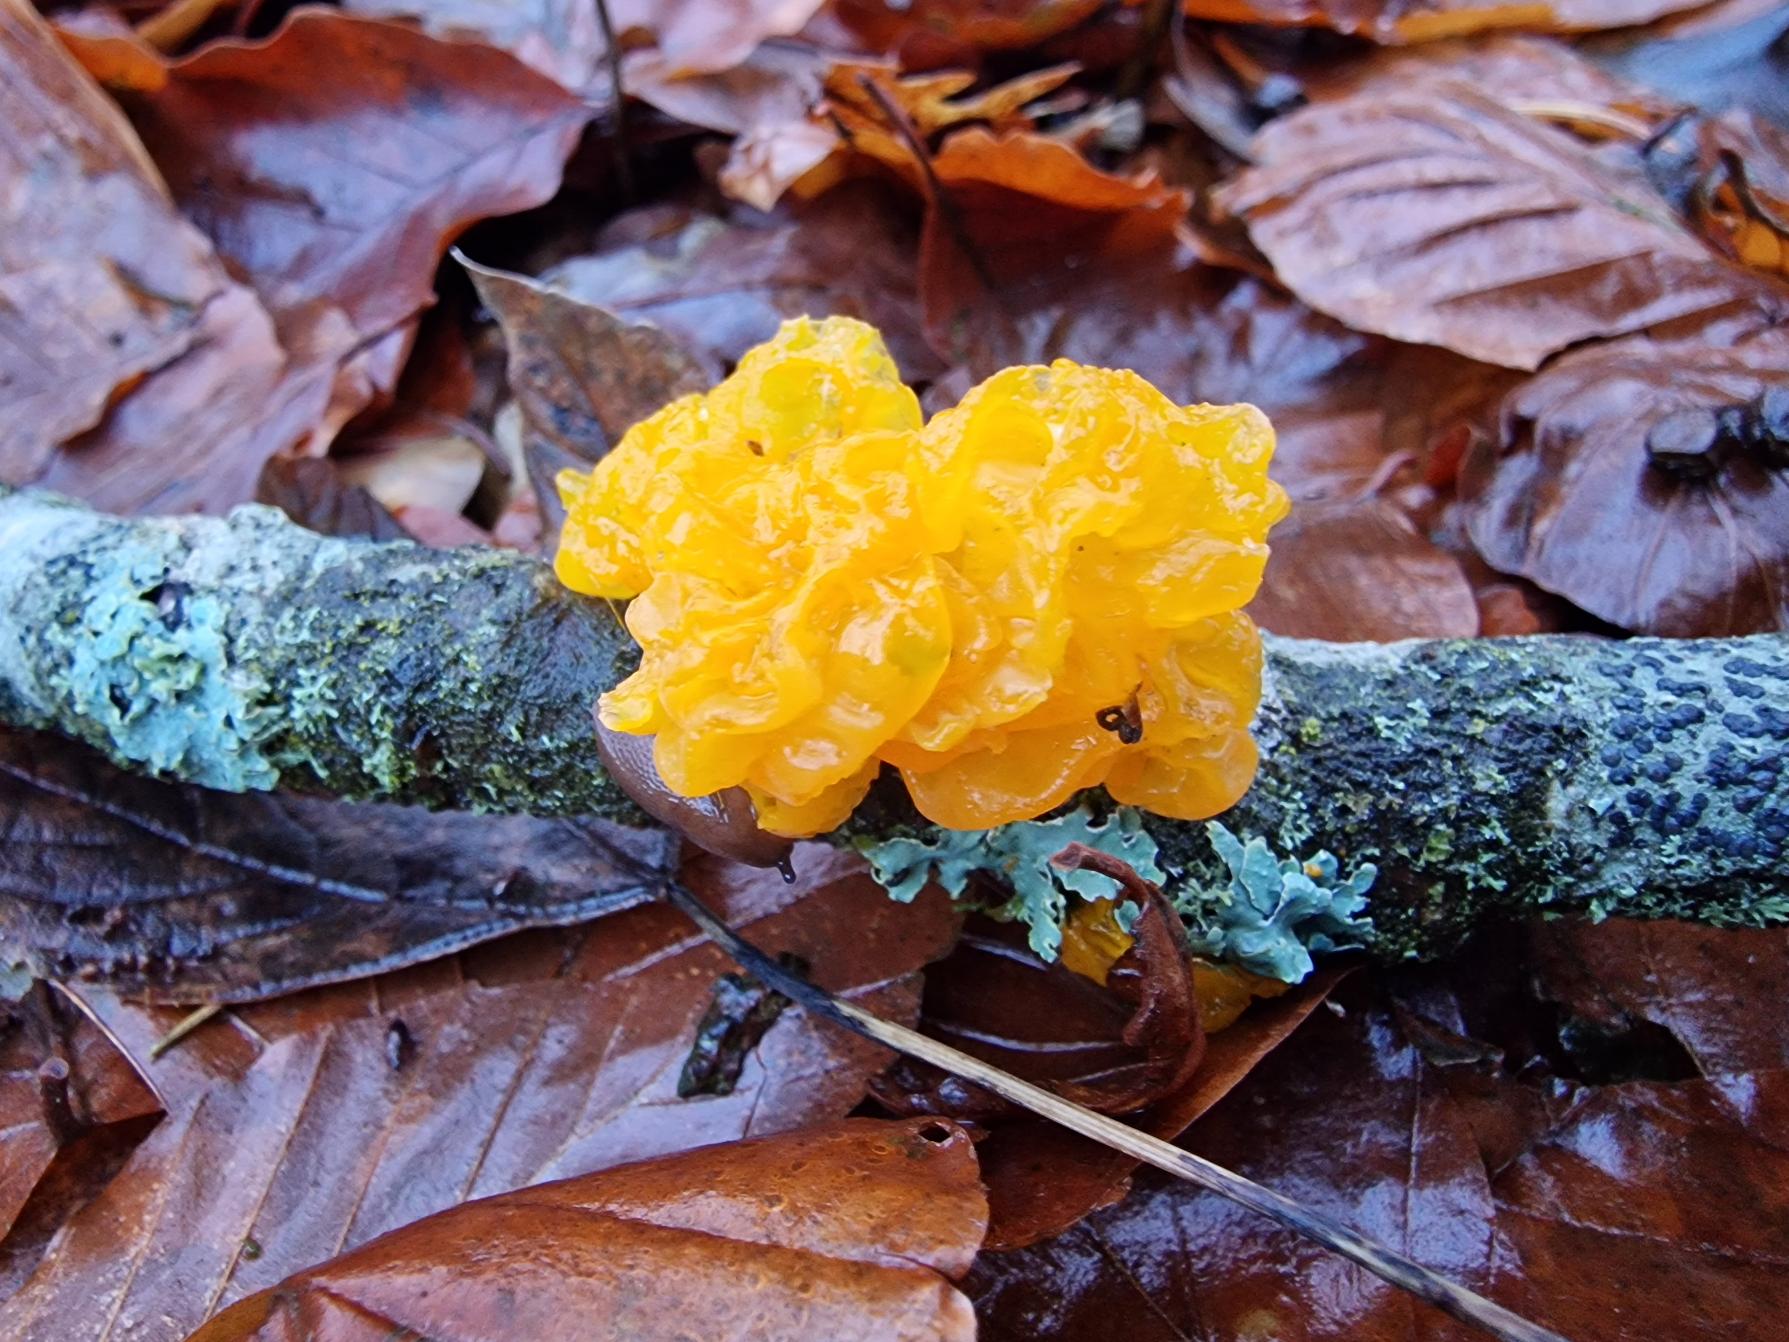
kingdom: Fungi
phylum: Basidiomycota
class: Tremellomycetes
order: Tremellales
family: Tremellaceae
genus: Tremella
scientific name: Tremella mesenterica
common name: Gul bævresvamp
